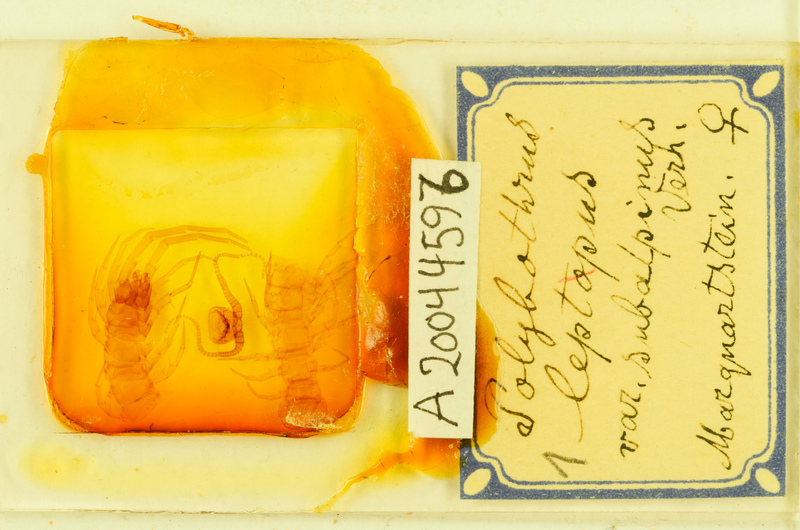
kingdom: Animalia
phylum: Arthropoda
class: Chilopoda
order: Lithobiomorpha
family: Lithobiidae
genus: Polybothrus
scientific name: Polybothrus leptopus
